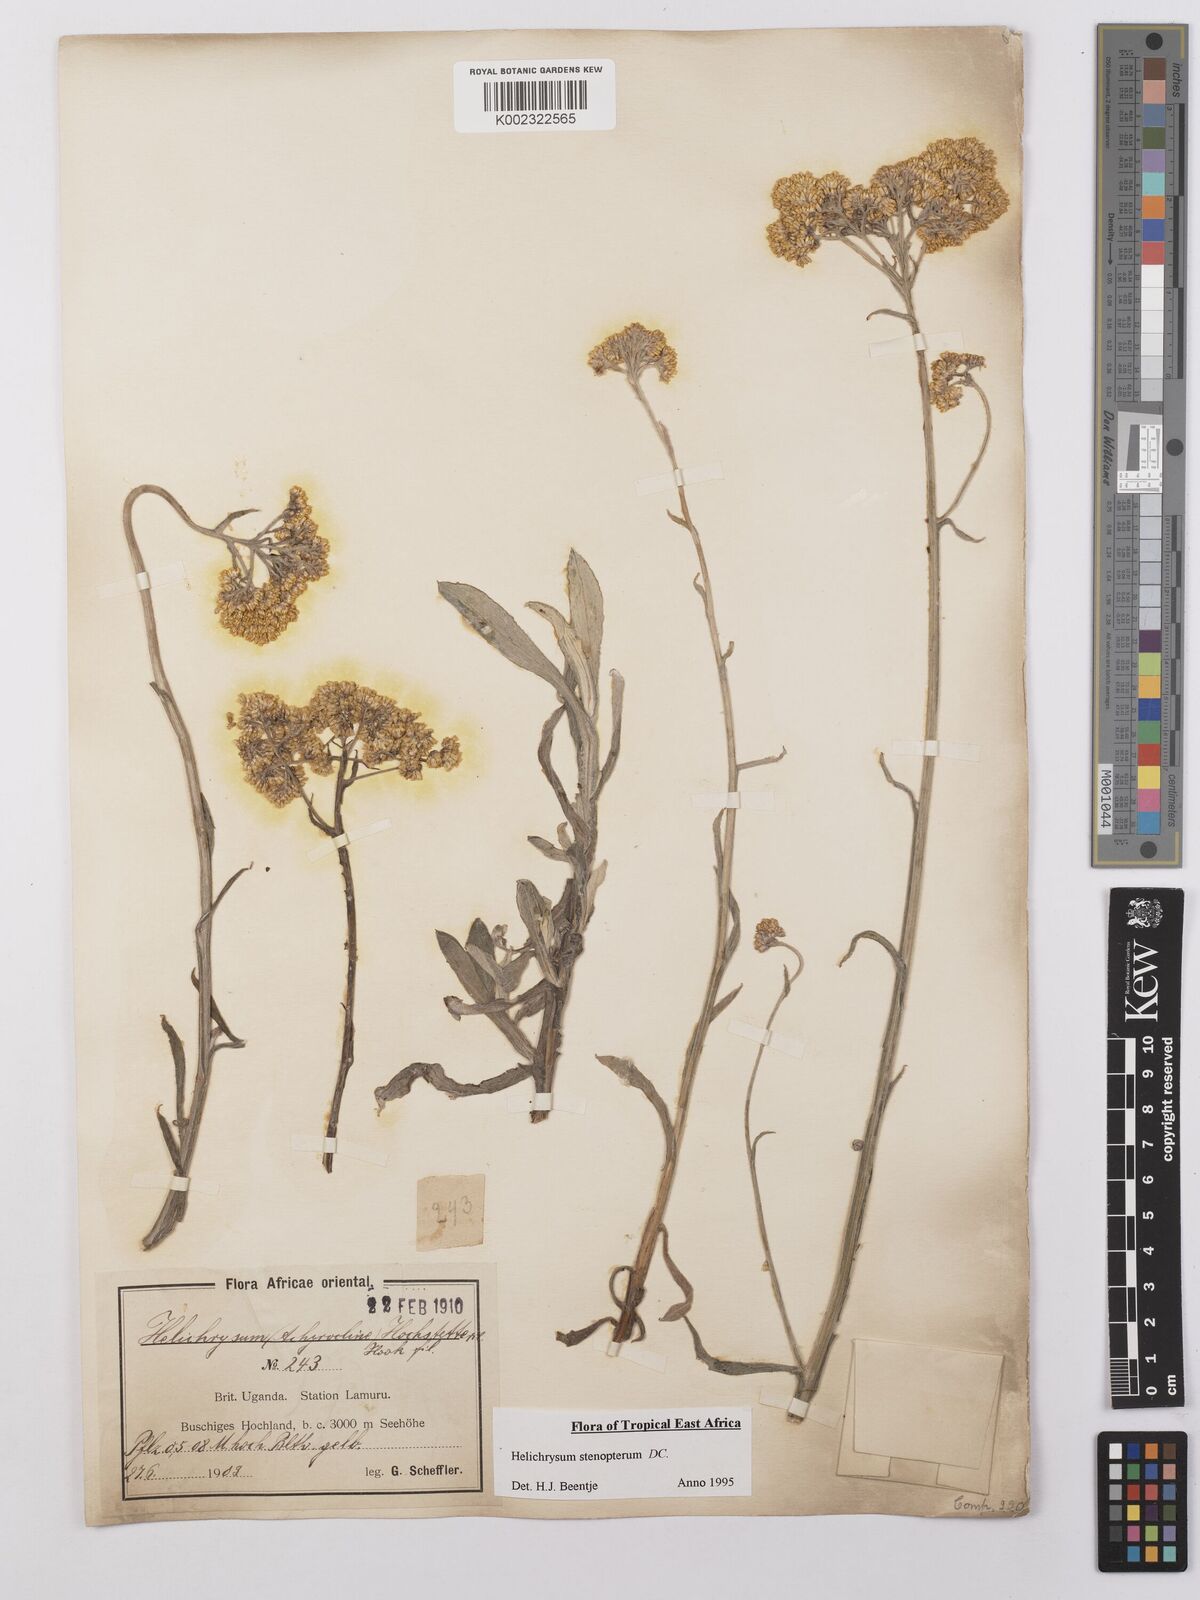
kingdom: Plantae
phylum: Tracheophyta
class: Magnoliopsida
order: Asterales
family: Asteraceae
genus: Helichrysum
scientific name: Helichrysum stenopterum
